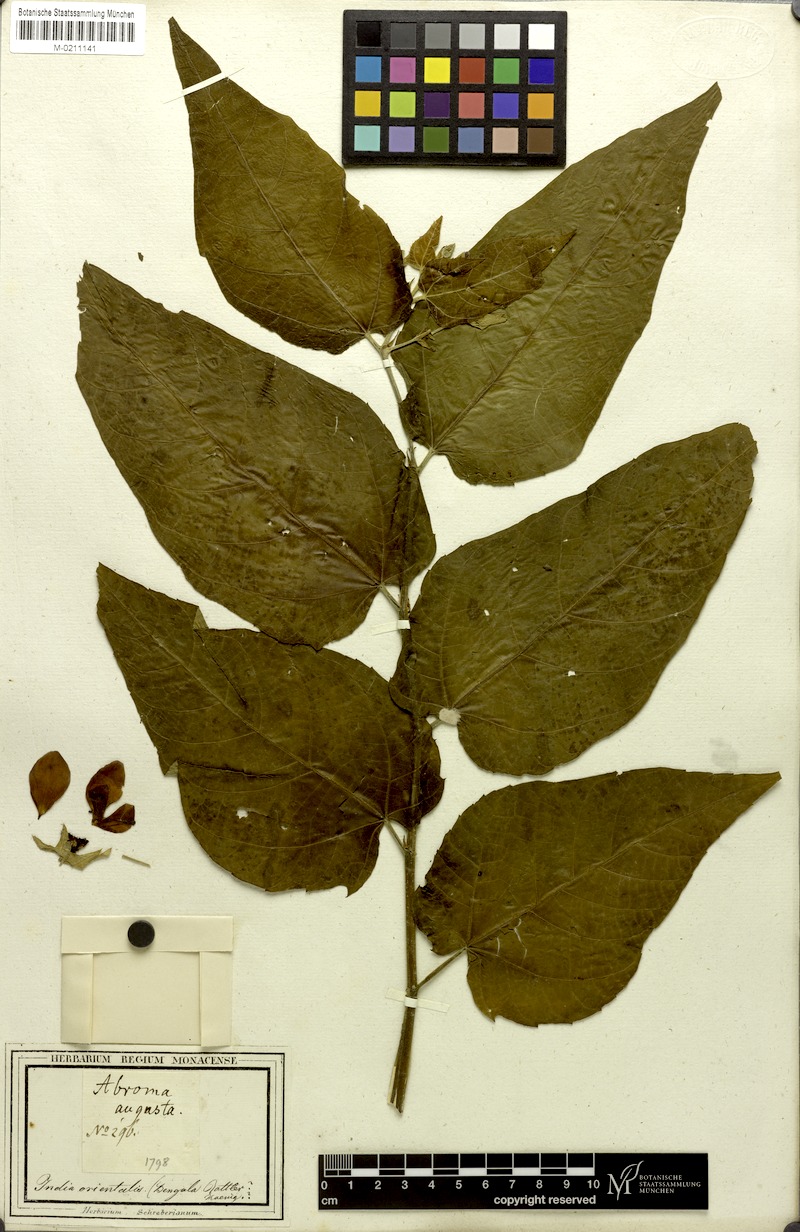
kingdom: Plantae
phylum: Tracheophyta
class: Magnoliopsida
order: Malvales
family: Malvaceae
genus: Abroma
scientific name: Abroma augustum
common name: Devil's-cotton
